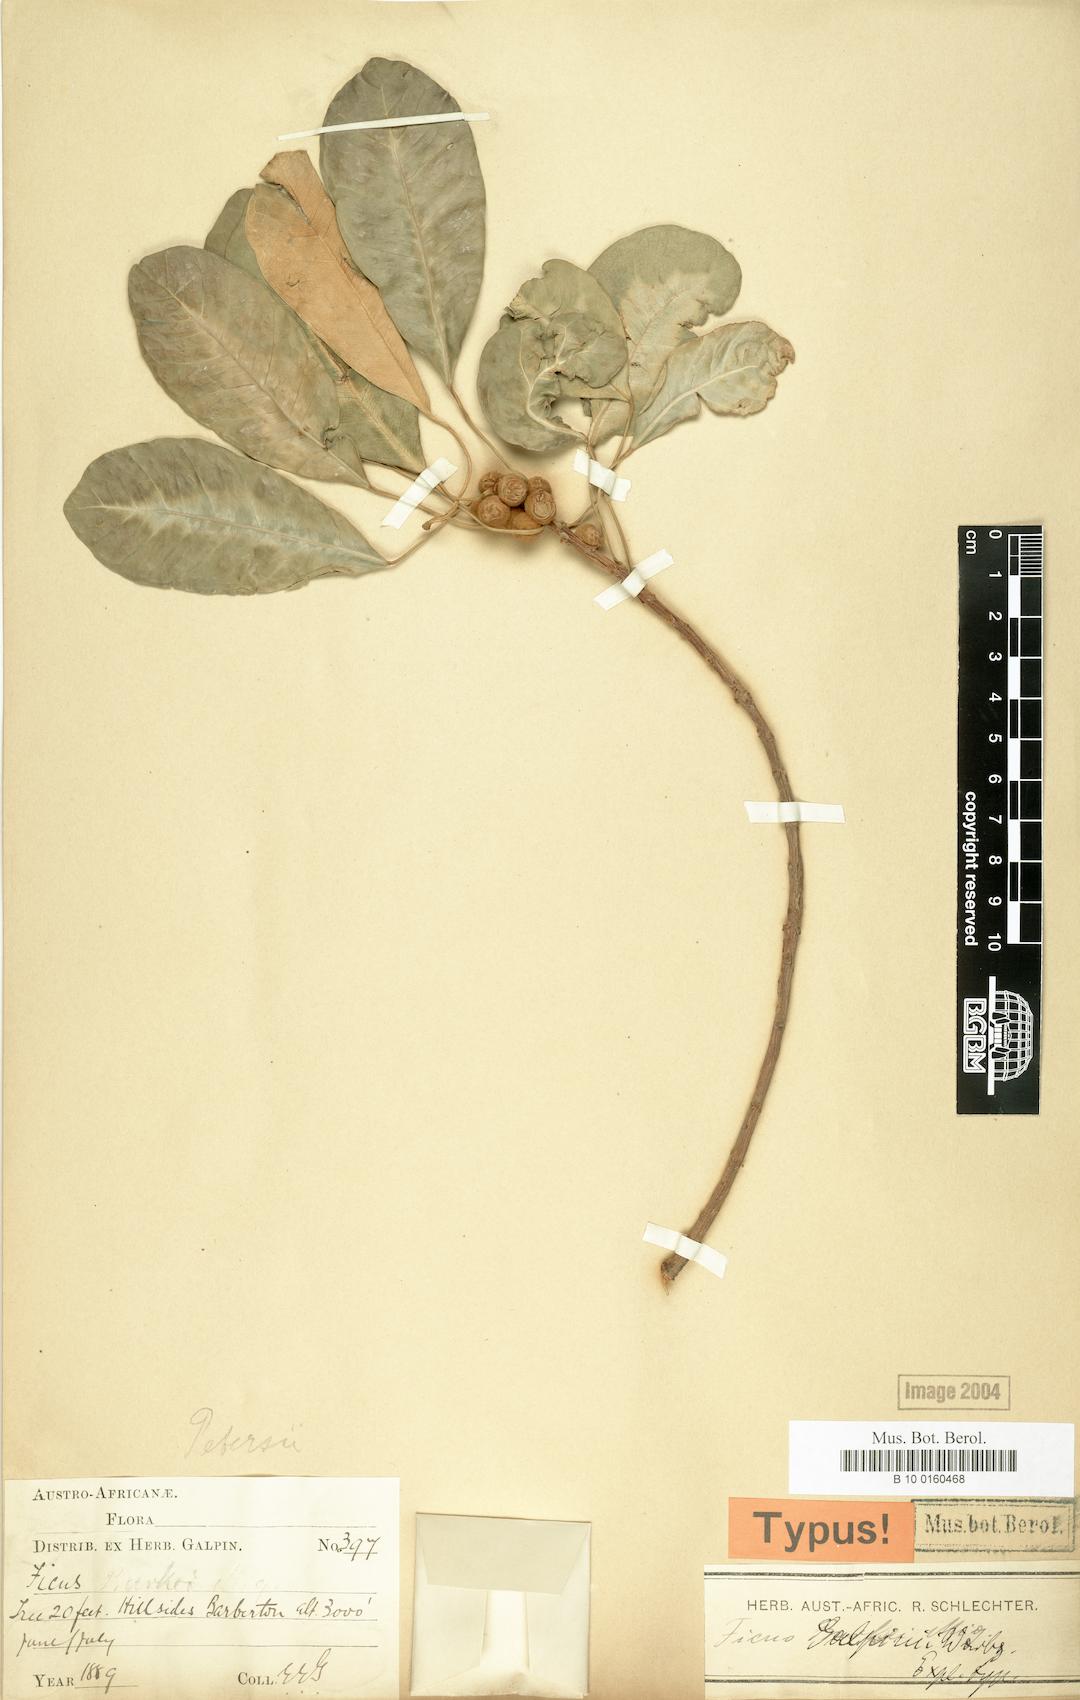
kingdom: Plantae
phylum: Tracheophyta
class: Magnoliopsida
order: Rosales
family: Moraceae
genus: Ficus
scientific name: Ficus petersii
